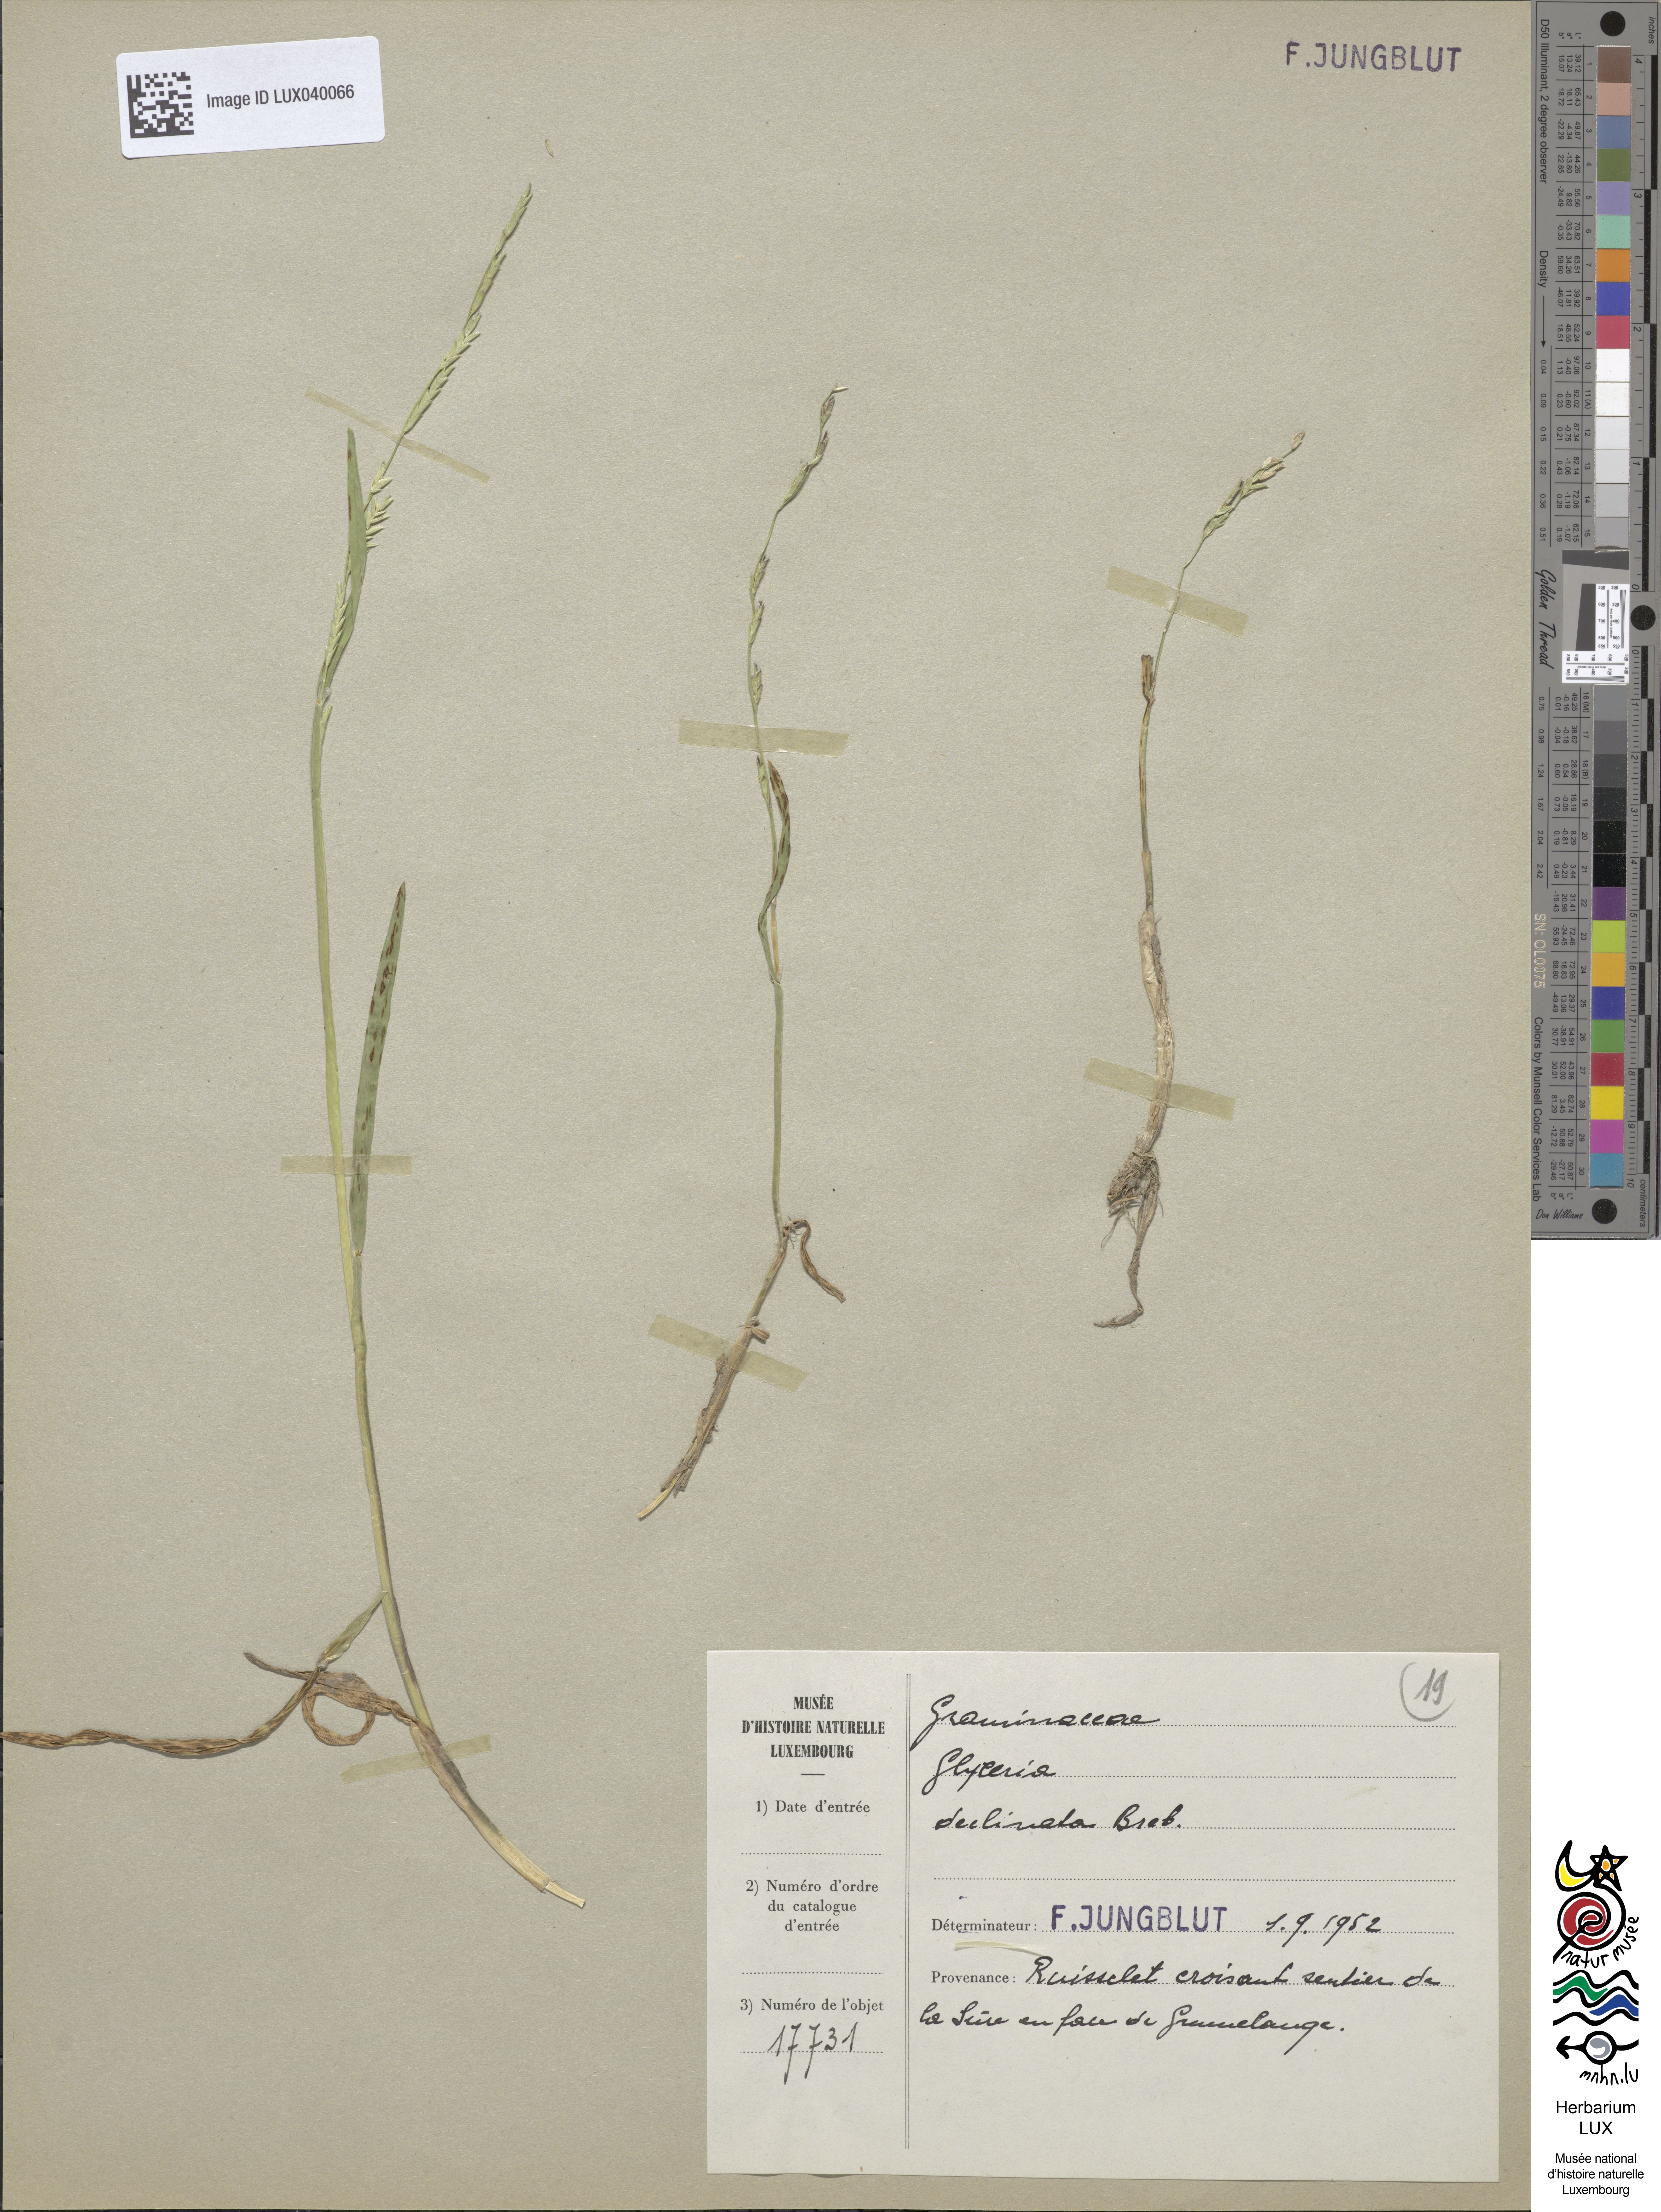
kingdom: Plantae
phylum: Tracheophyta
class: Liliopsida
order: Poales
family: Poaceae
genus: Glyceria
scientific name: Glyceria declinata
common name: Small sweet-grass
